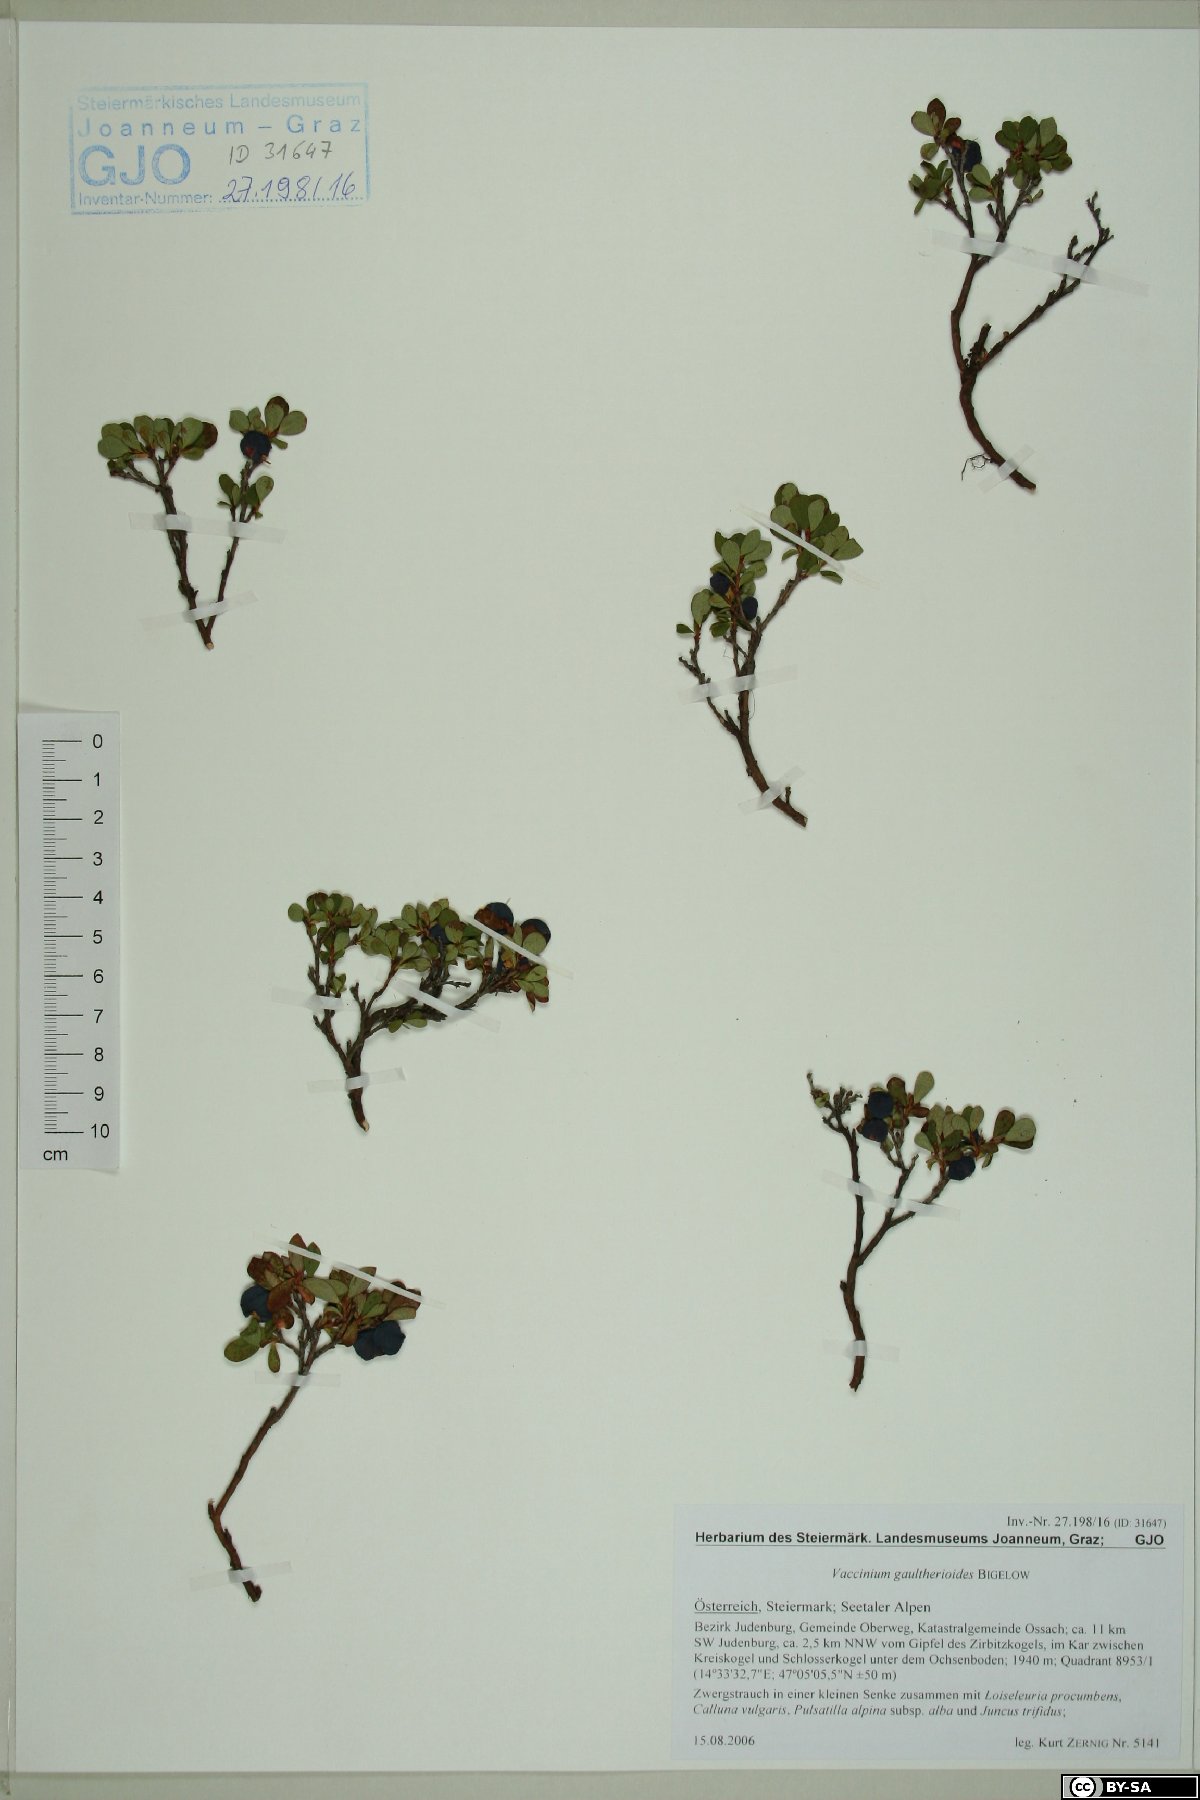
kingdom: Plantae
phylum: Tracheophyta
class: Magnoliopsida
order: Ericales
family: Ericaceae
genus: Vaccinium
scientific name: Vaccinium gaultherioides
